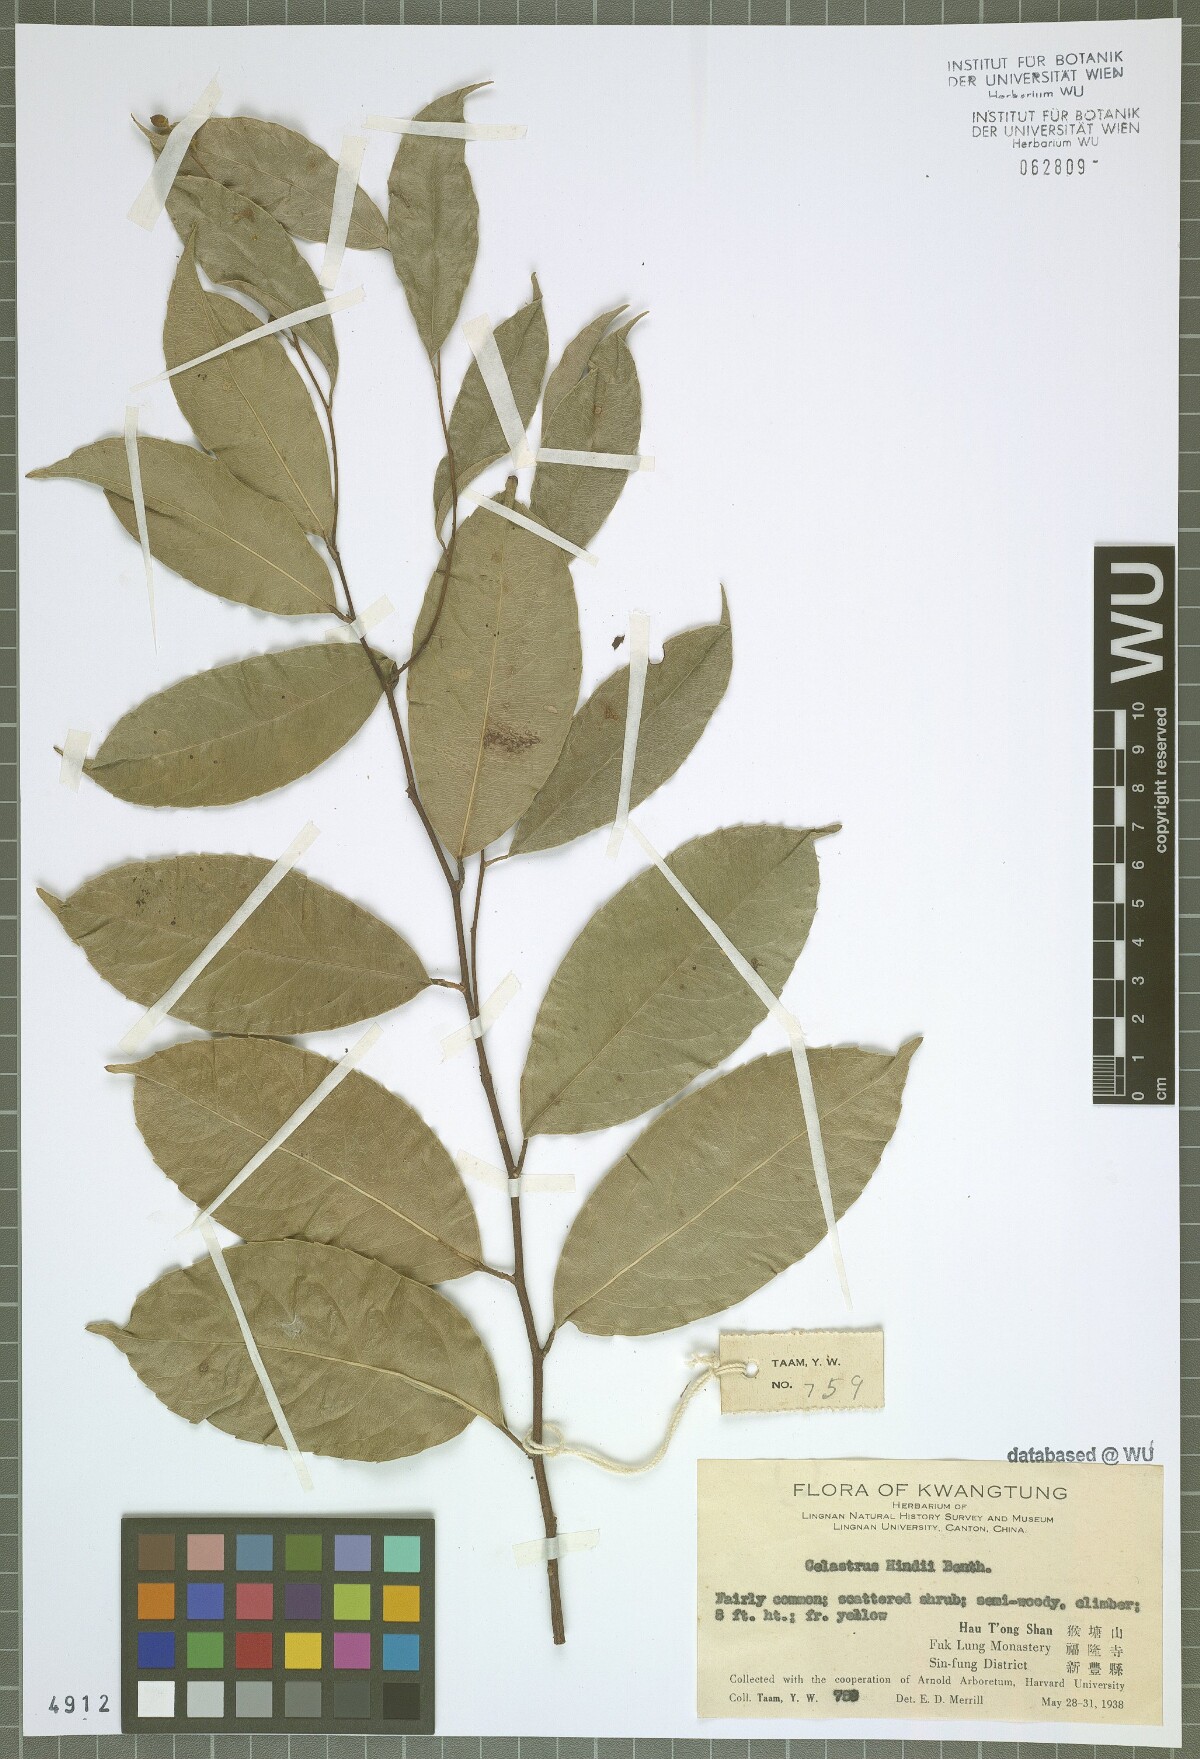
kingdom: Plantae
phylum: Tracheophyta
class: Magnoliopsida
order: Celastrales
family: Celastraceae
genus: Celastrus
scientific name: Celastrus hindsii
